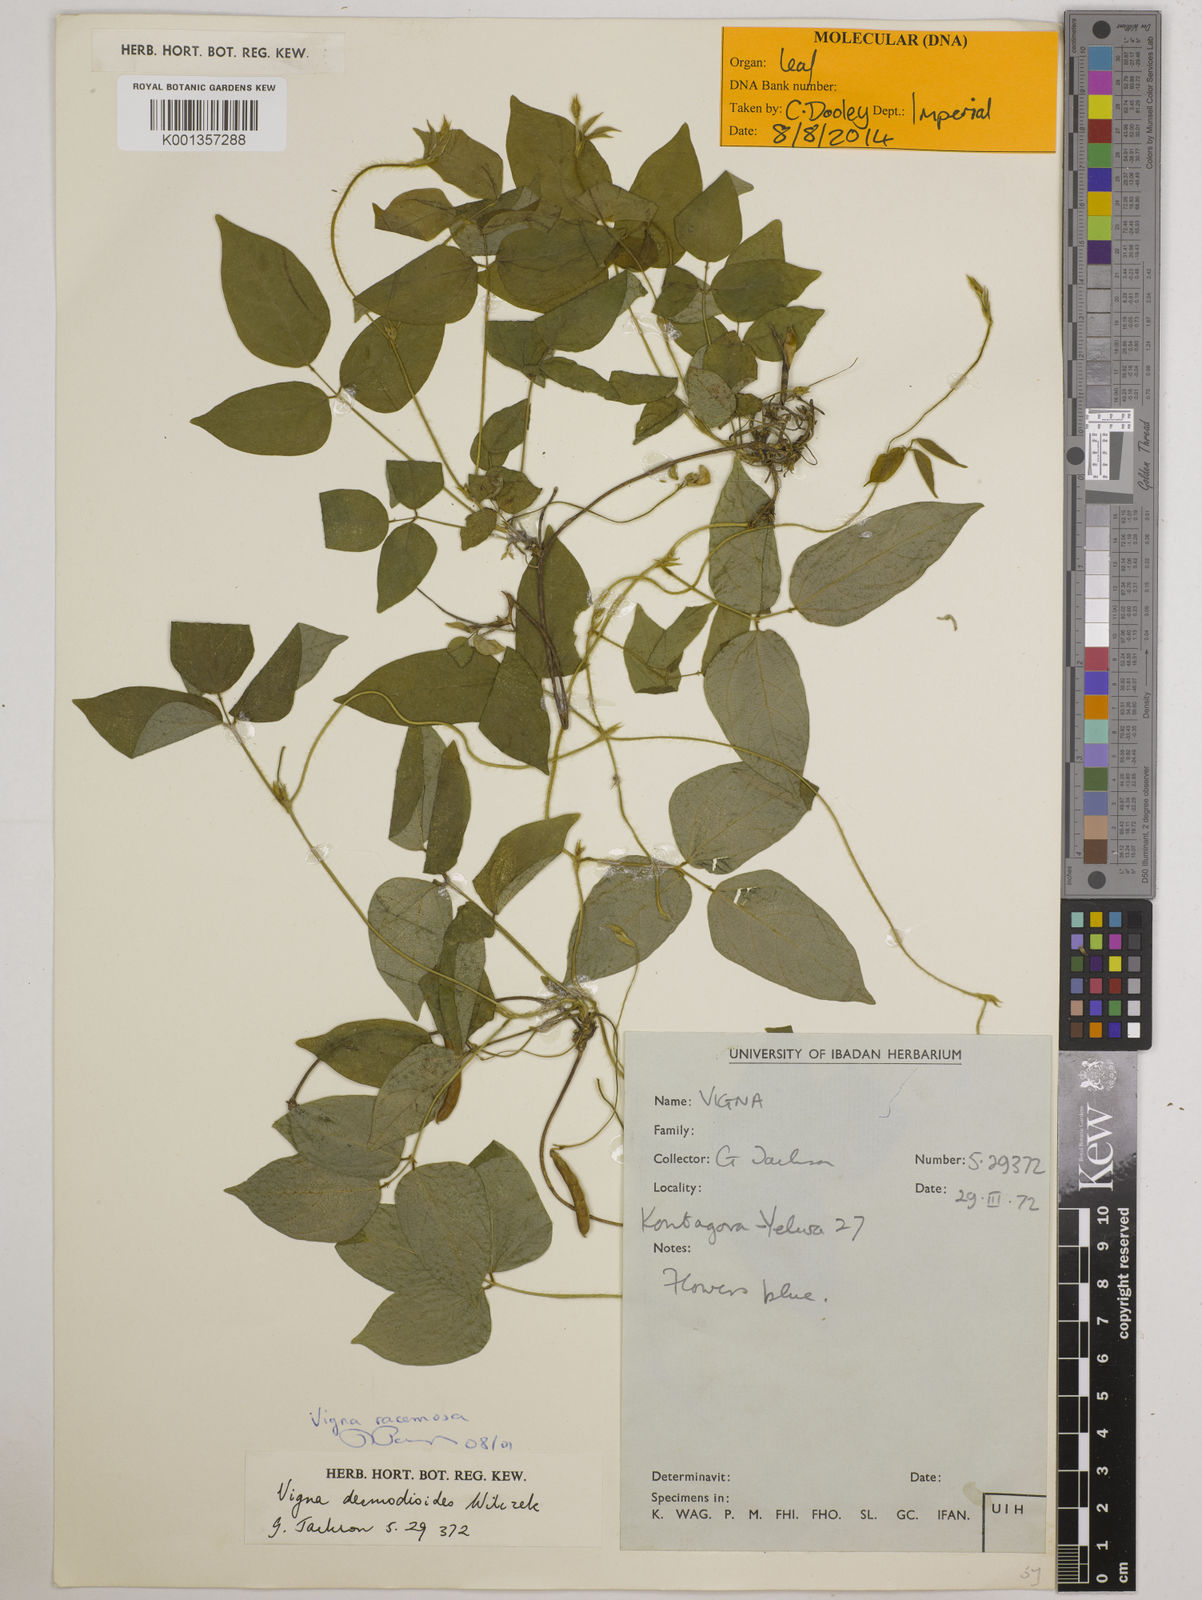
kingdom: Plantae
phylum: Tracheophyta
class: Magnoliopsida
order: Fabales
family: Fabaceae
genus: Vigna
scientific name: Vigna racemosa
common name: Beans not eaten
